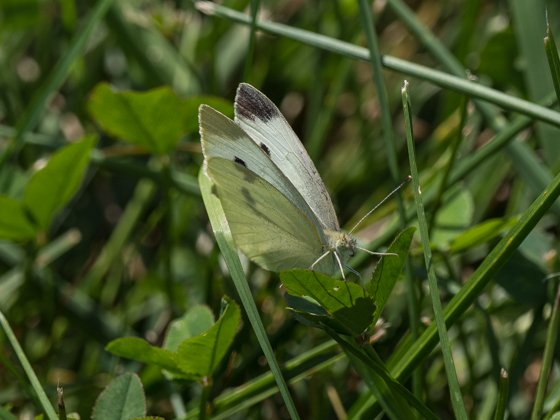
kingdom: Animalia
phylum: Arthropoda
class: Insecta
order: Lepidoptera
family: Pieridae
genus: Pieris
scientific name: Pieris rapae
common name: Cabbage White
